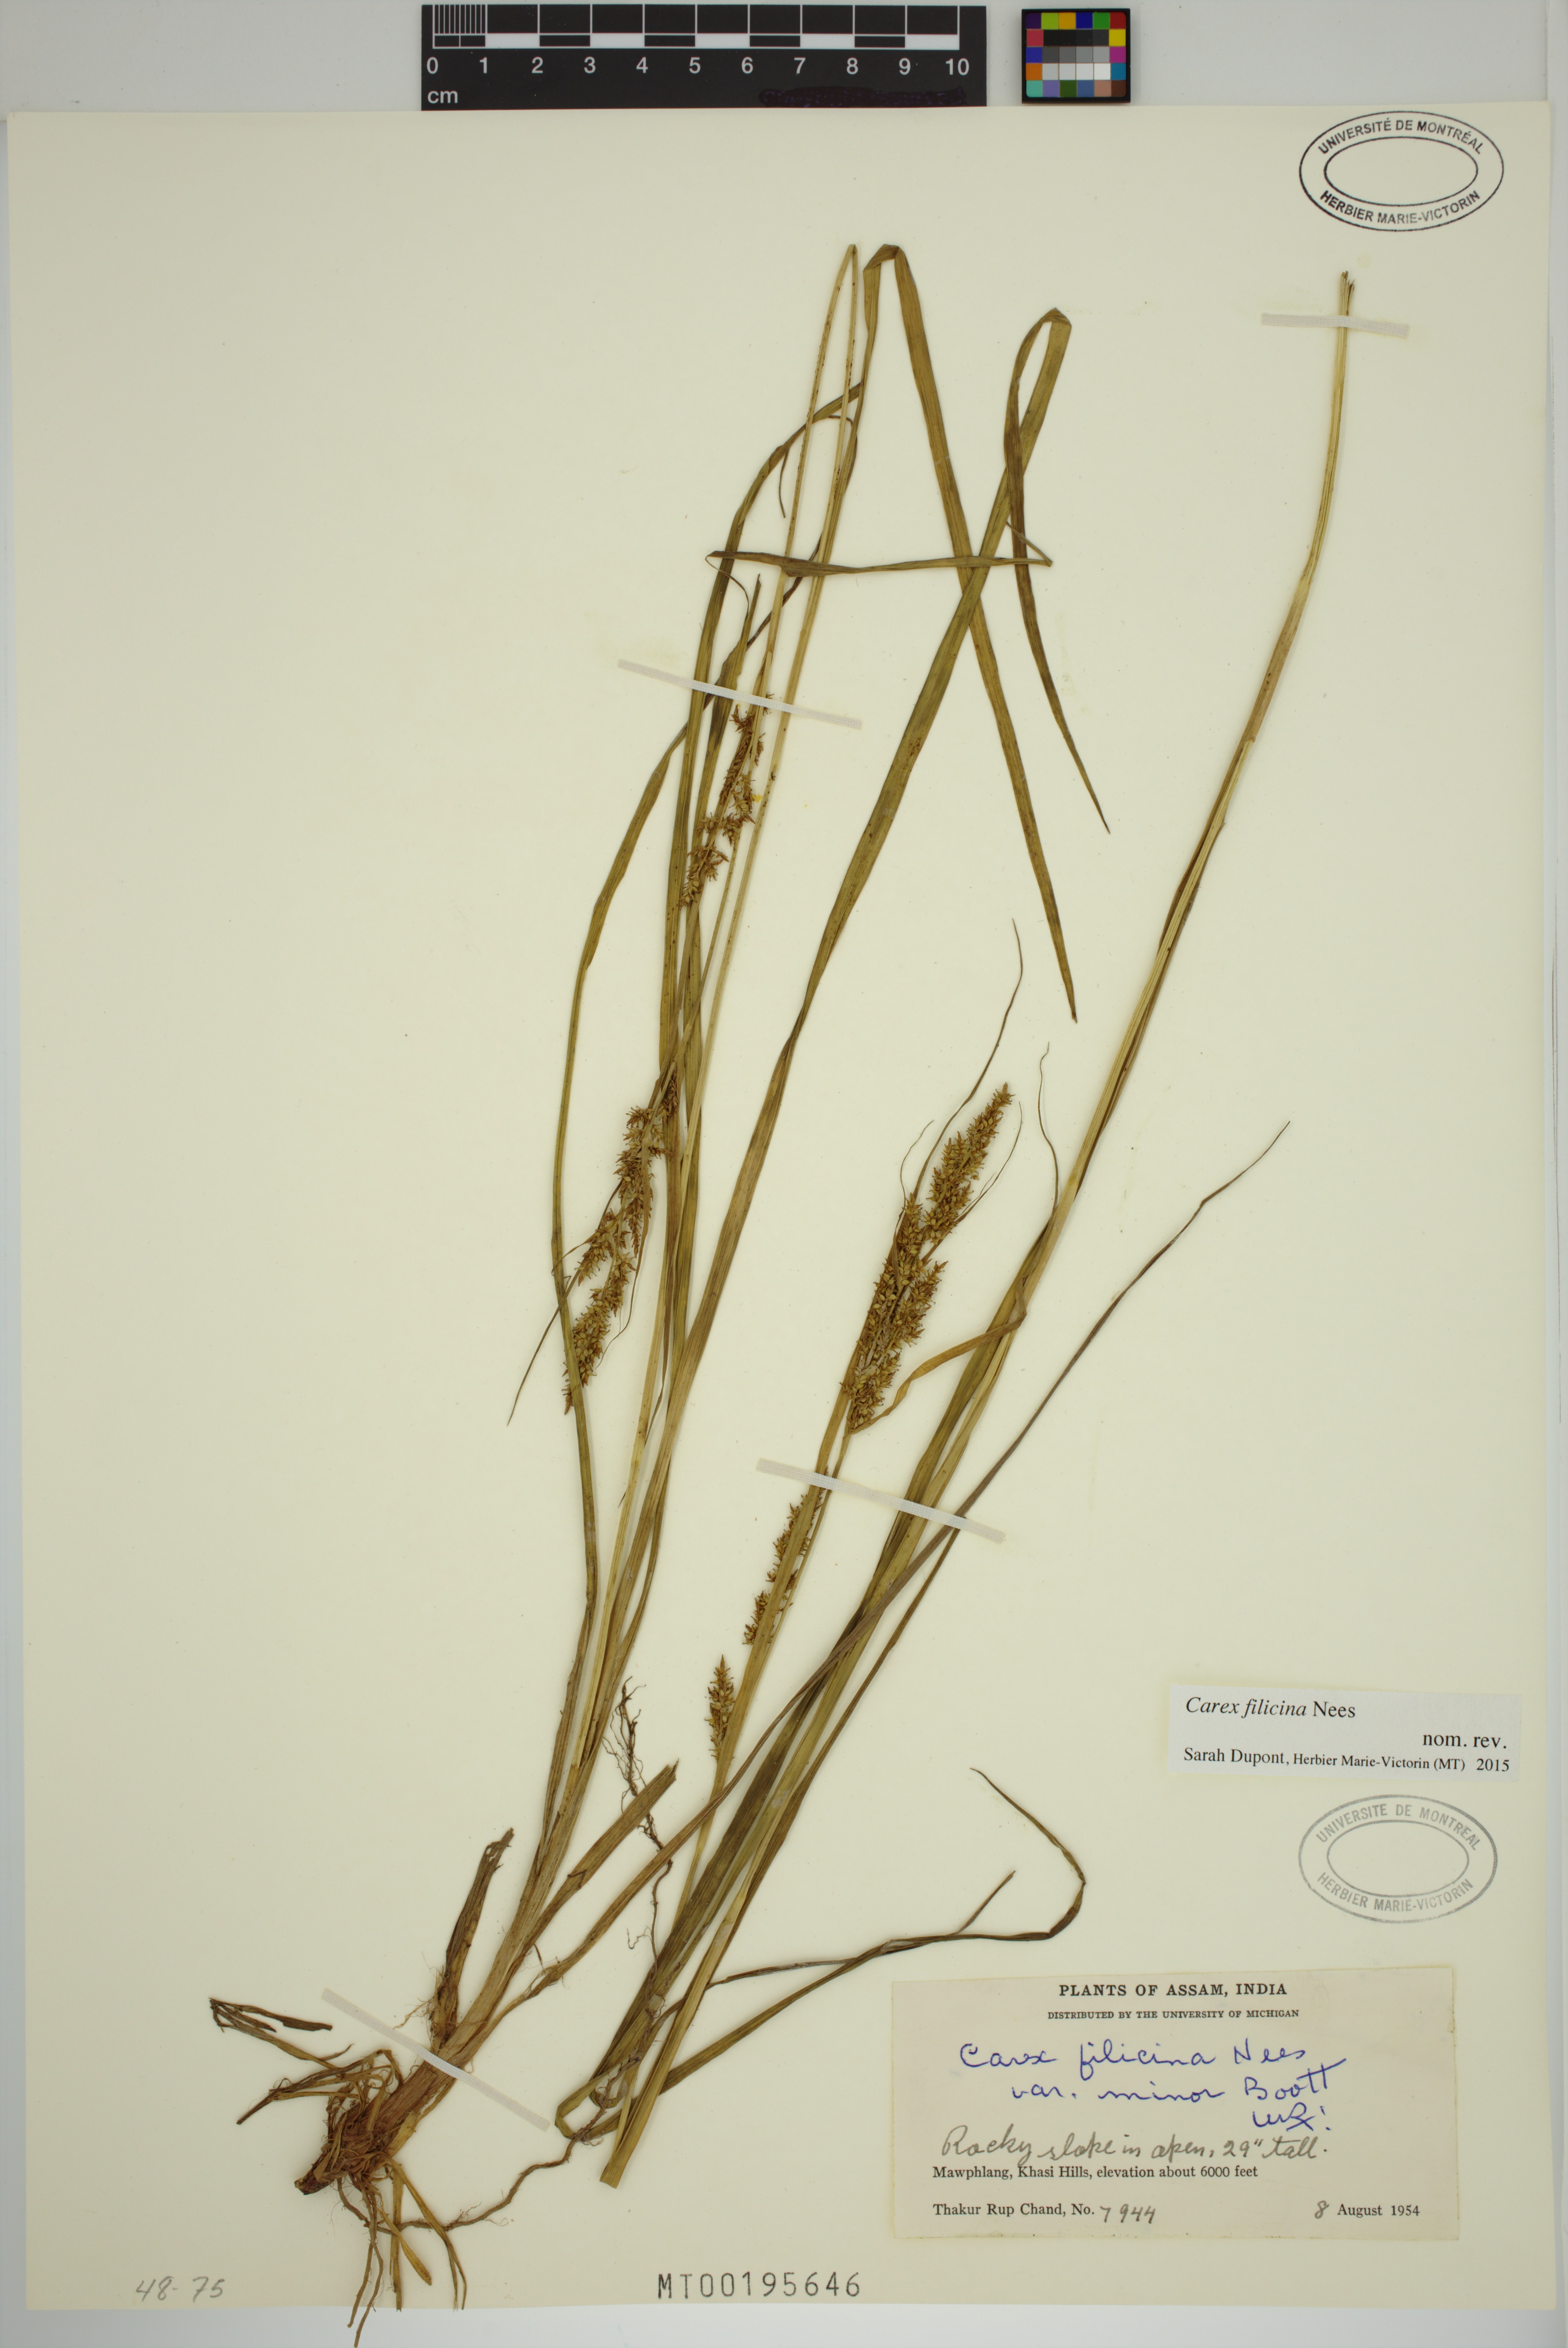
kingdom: Plantae
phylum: Tracheophyta
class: Liliopsida
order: Poales
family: Cyperaceae
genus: Carex
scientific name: Carex filicina
